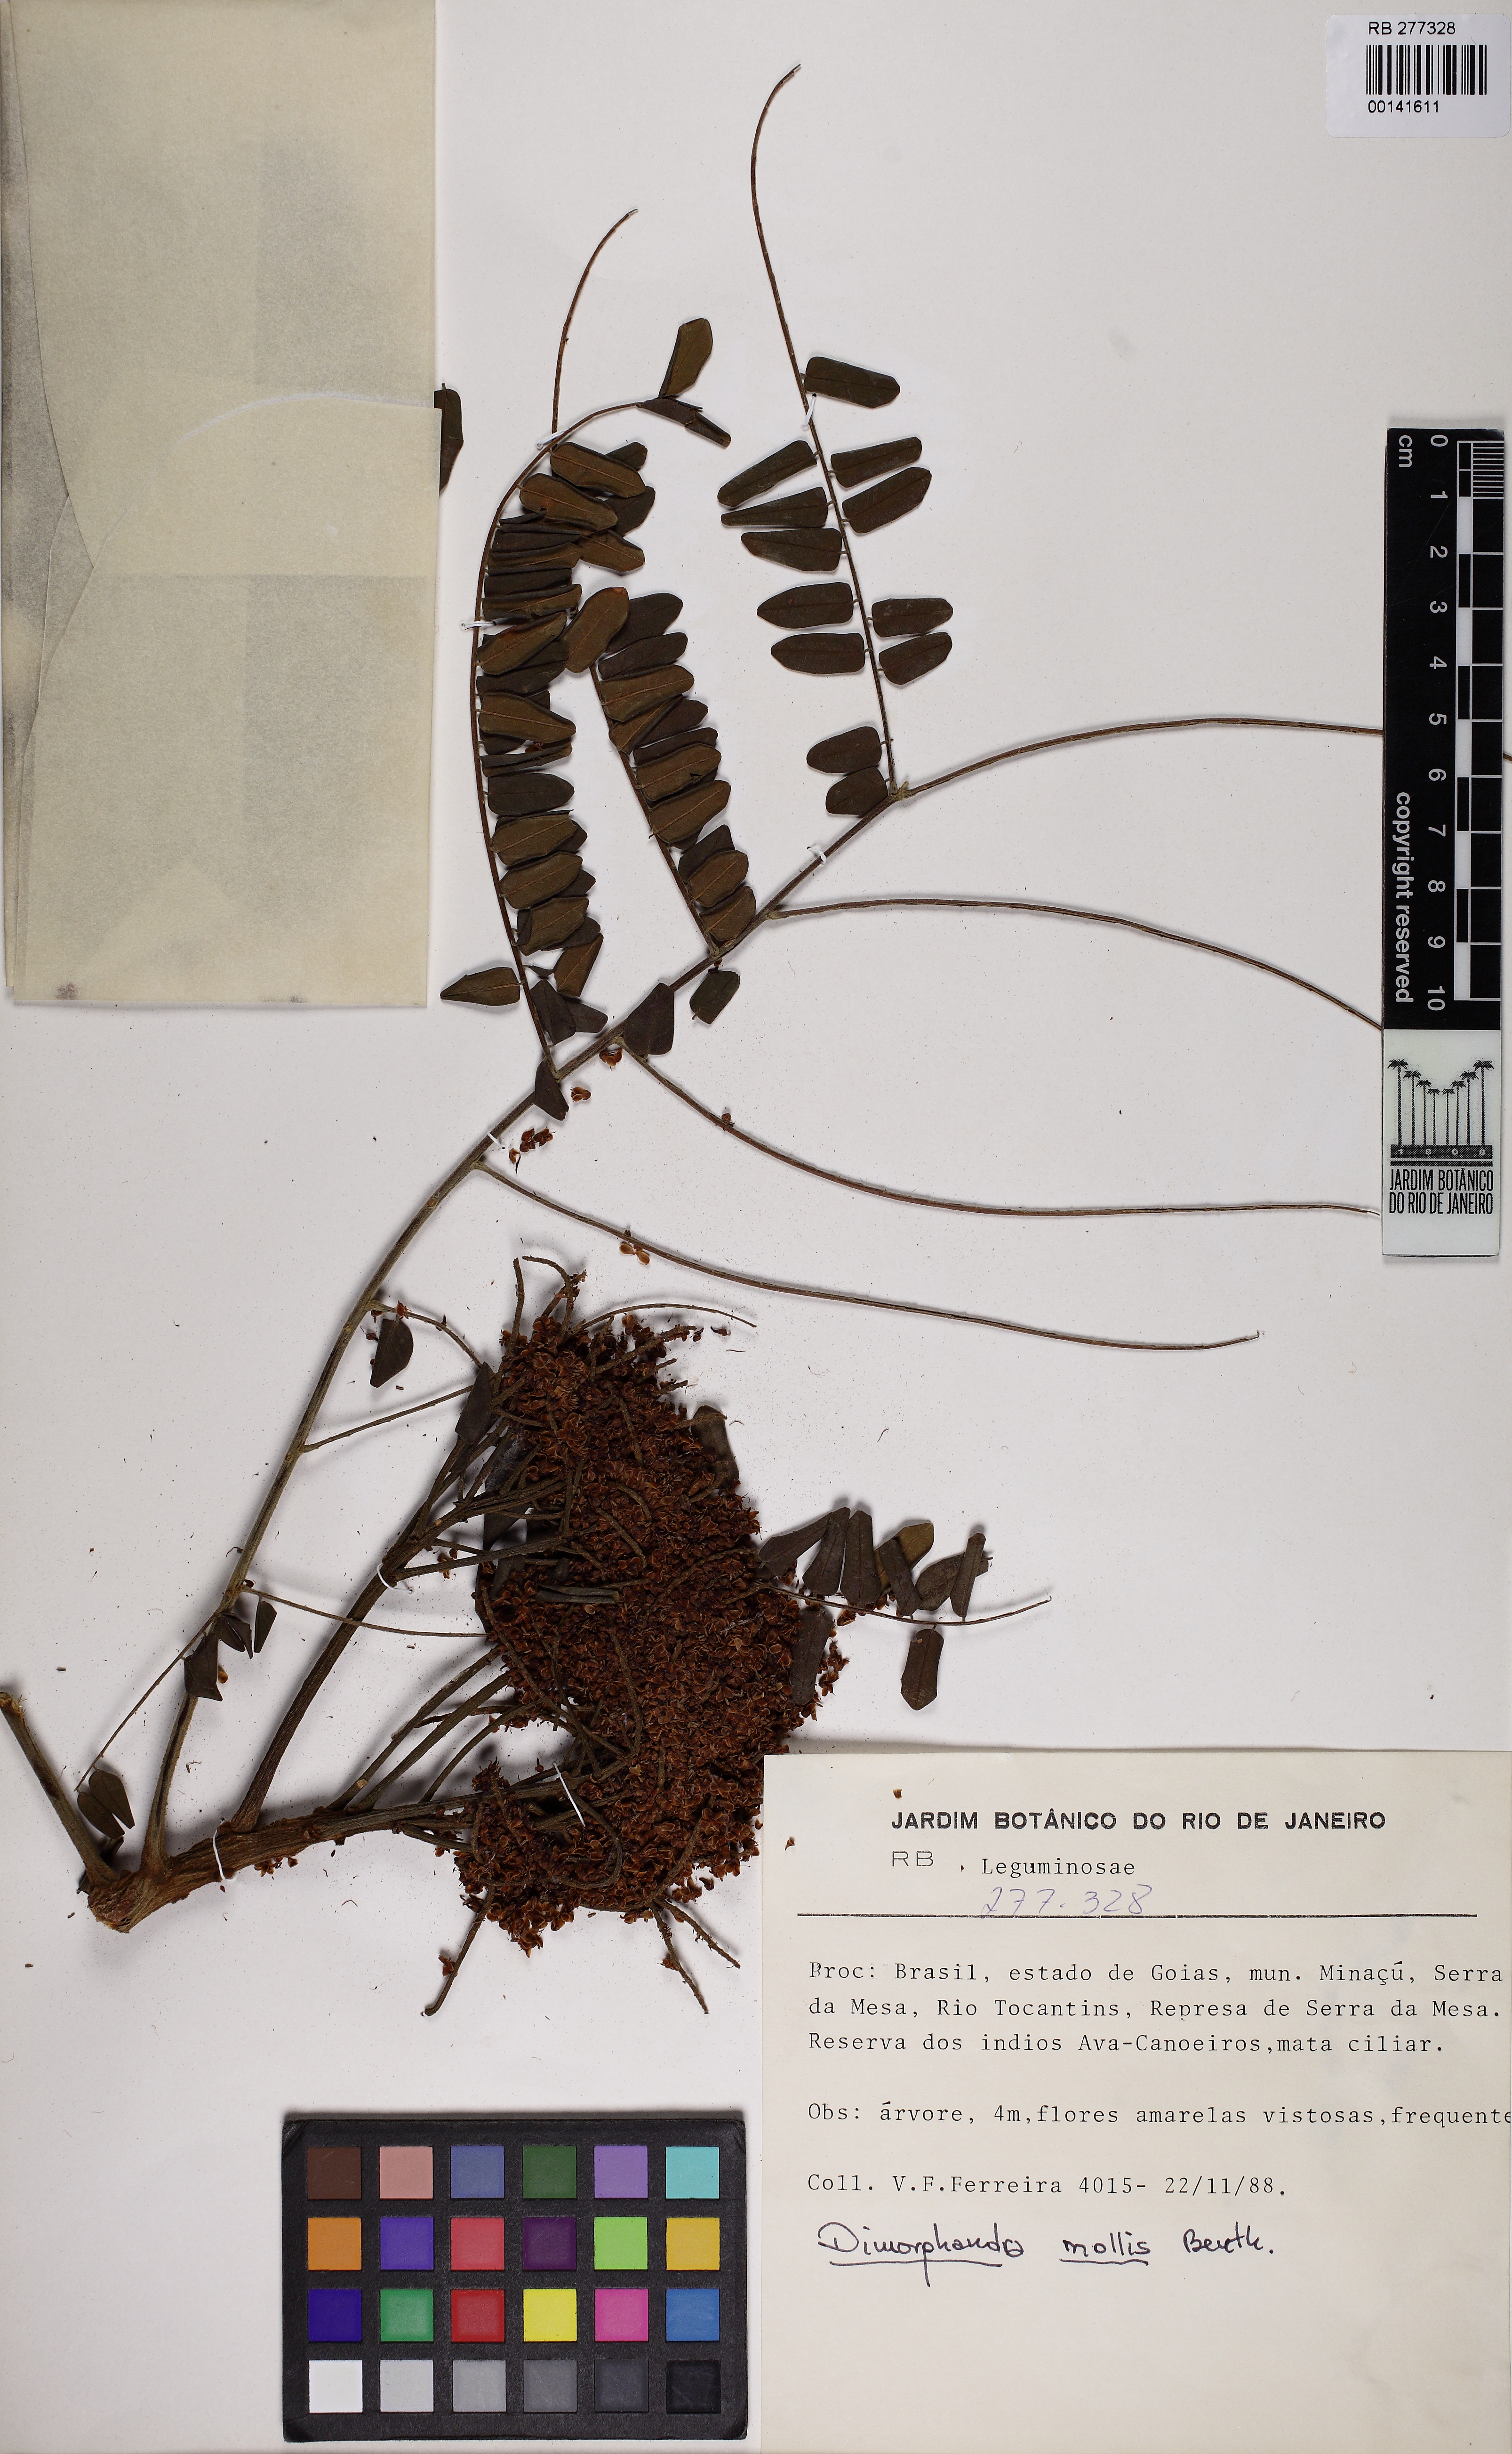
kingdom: Plantae
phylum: Tracheophyta
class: Magnoliopsida
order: Fabales
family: Fabaceae
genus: Dimorphandra
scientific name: Dimorphandra mollis
